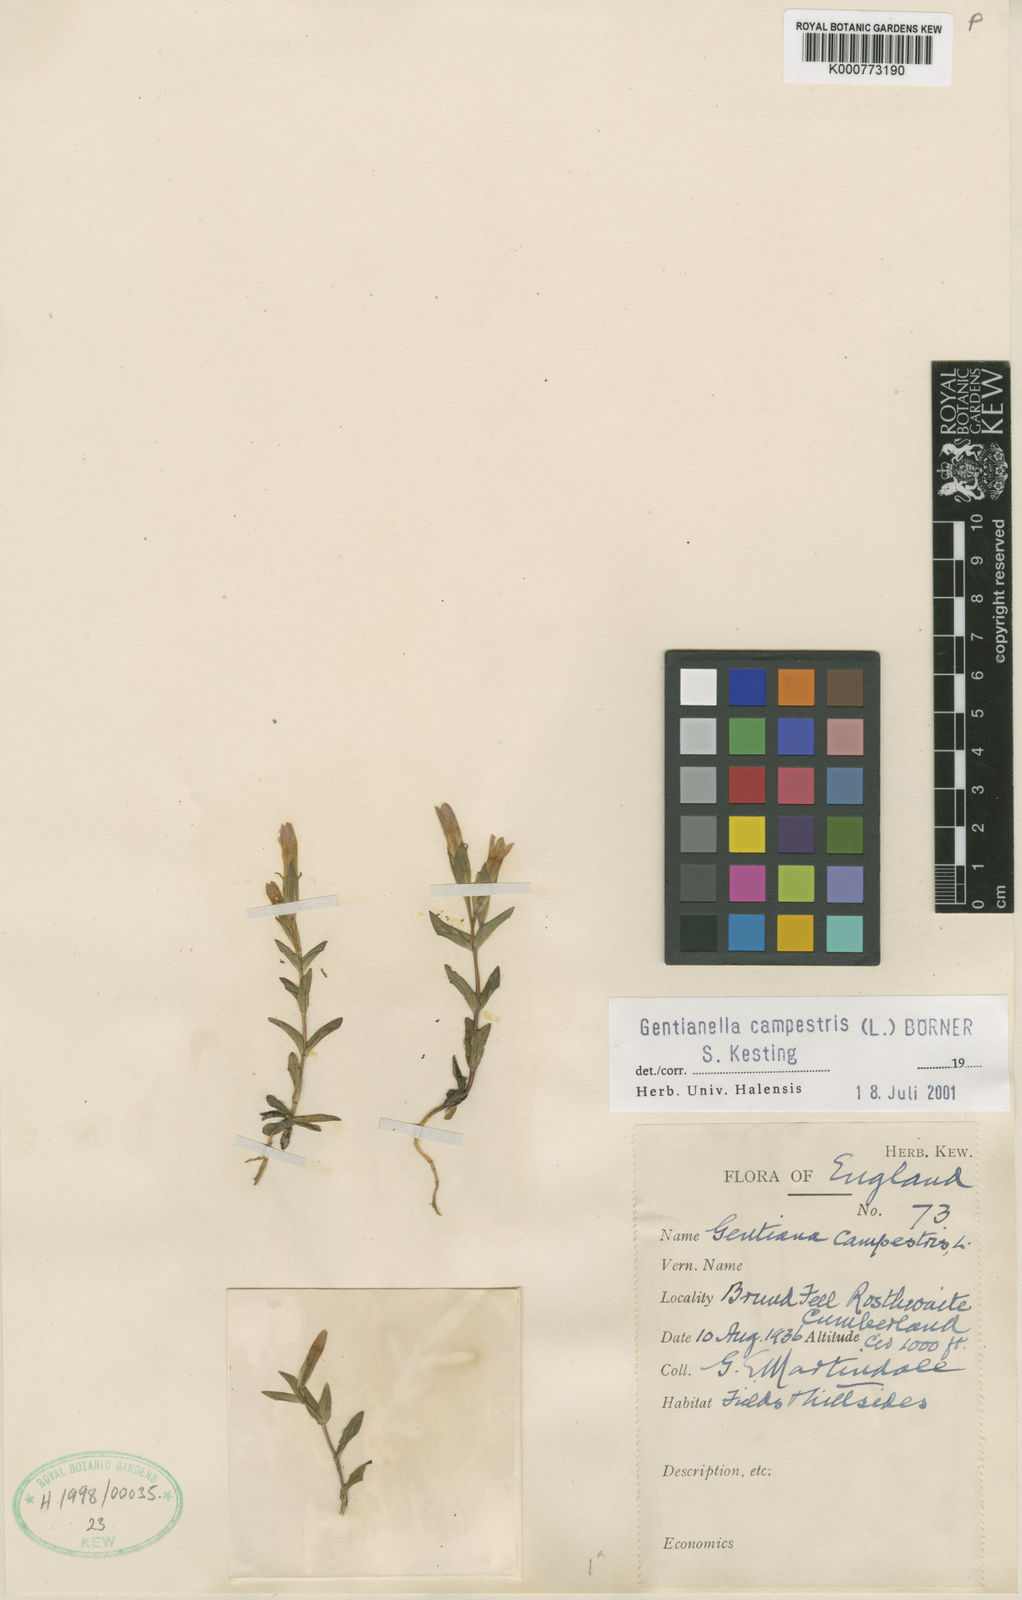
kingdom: Plantae
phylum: Tracheophyta
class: Magnoliopsida
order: Gentianales
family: Gentianaceae
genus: Gentianella
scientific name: Gentianella
